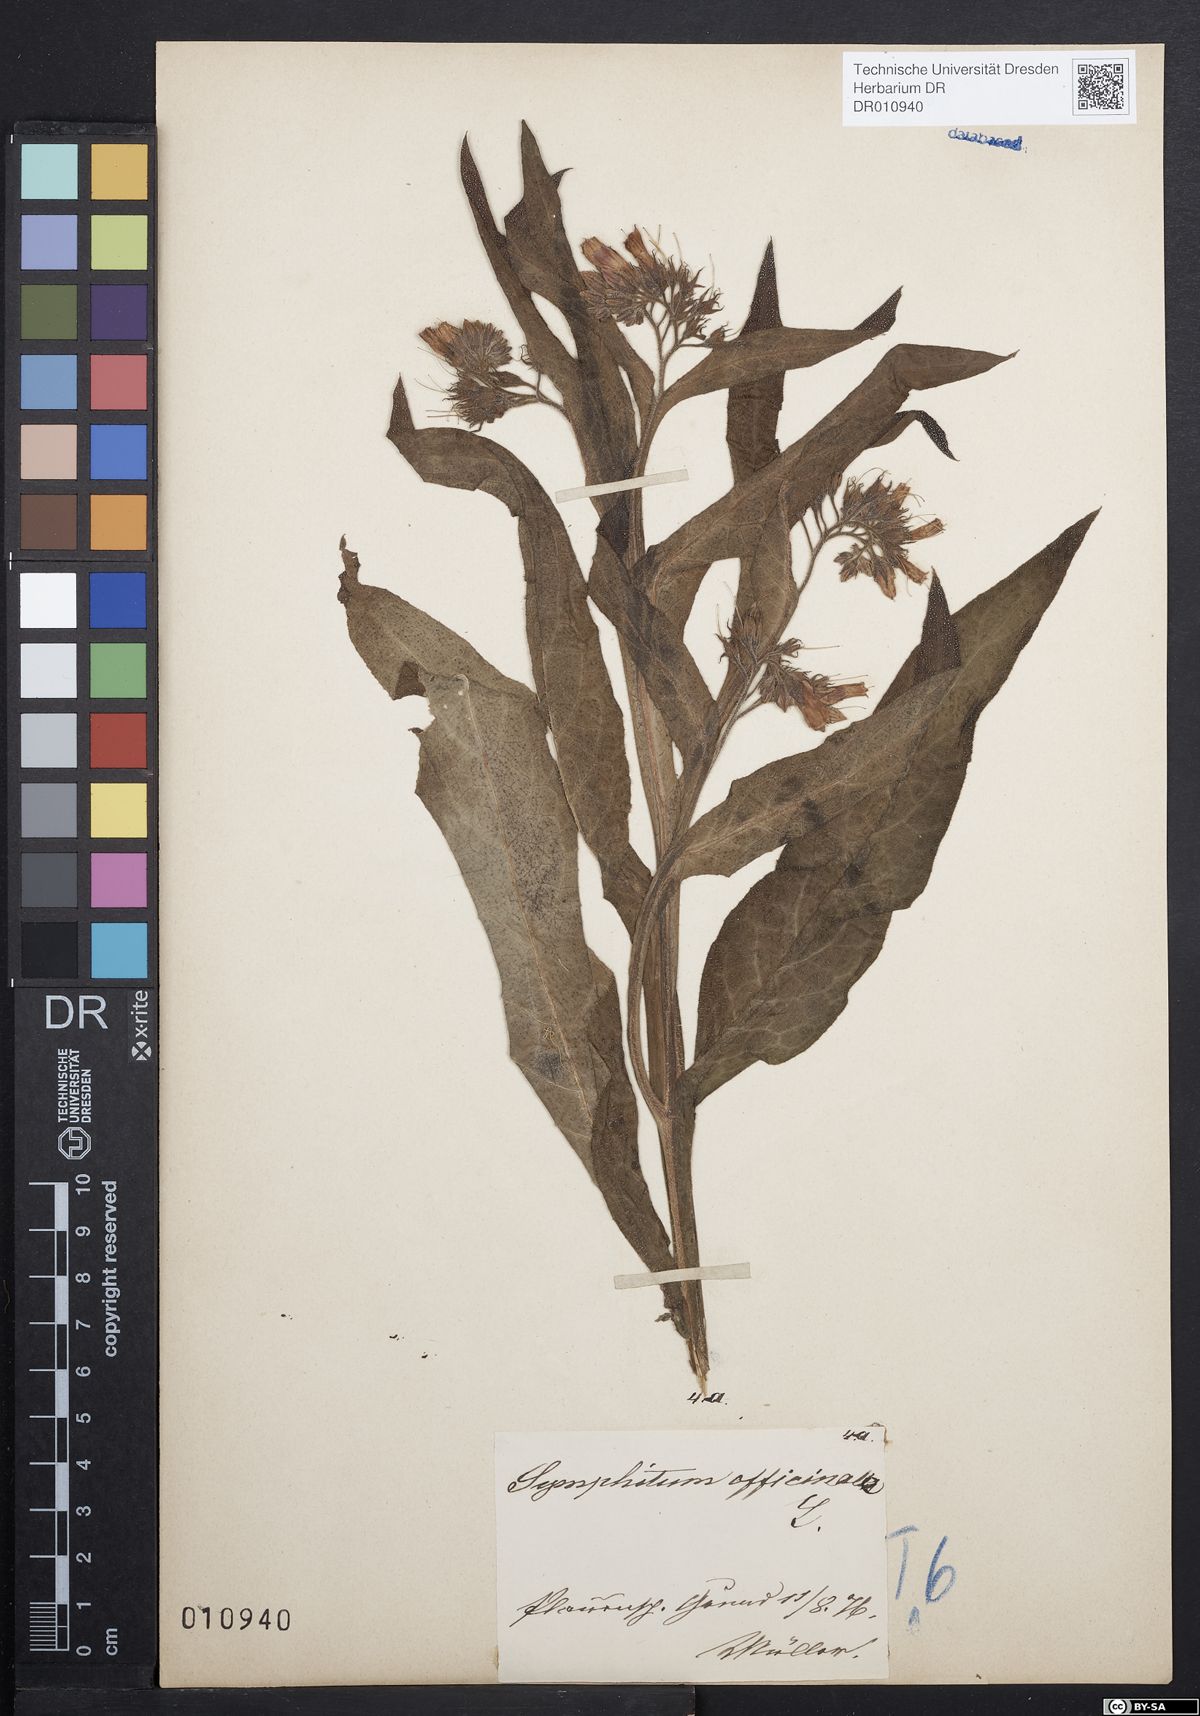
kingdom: Plantae
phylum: Tracheophyta
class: Magnoliopsida
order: Boraginales
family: Boraginaceae
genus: Symphytum
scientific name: Symphytum officinale
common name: Common comfrey
